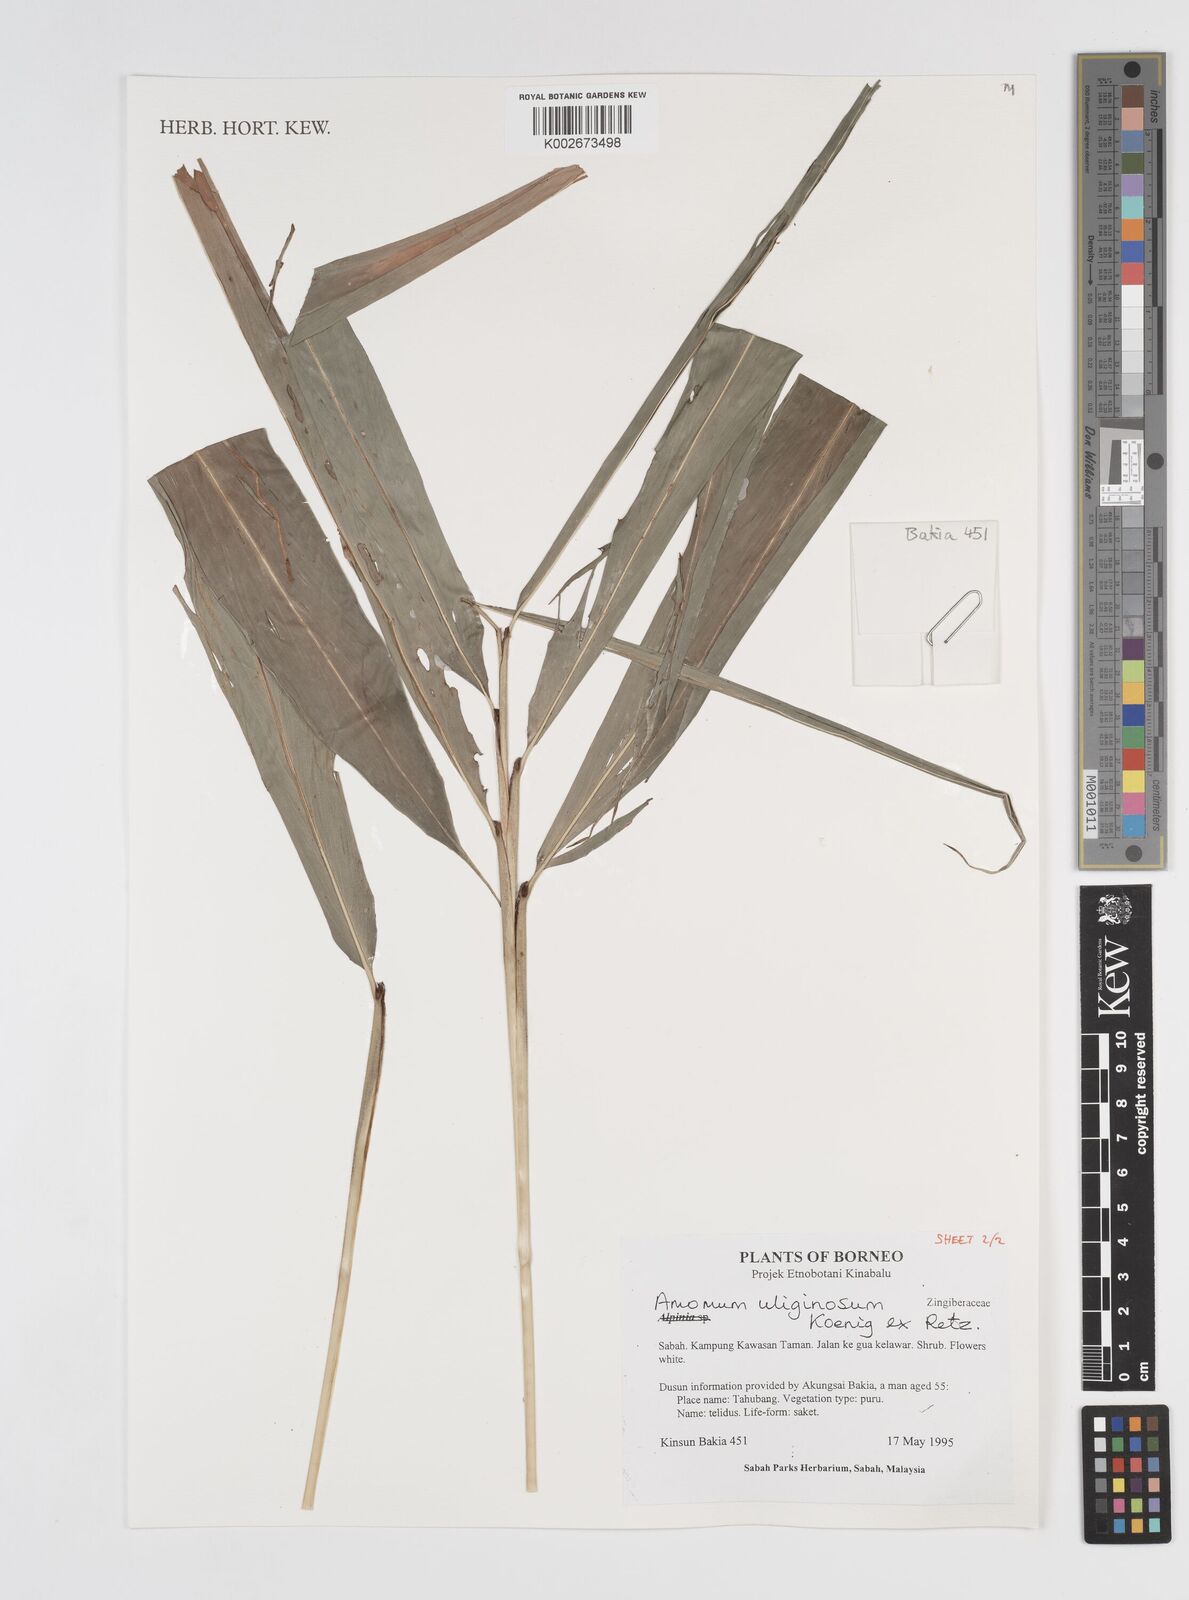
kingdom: Plantae
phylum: Tracheophyta
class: Liliopsida
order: Zingiberales
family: Zingiberaceae
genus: Wurfbainia
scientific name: Wurfbainia uliginosa
